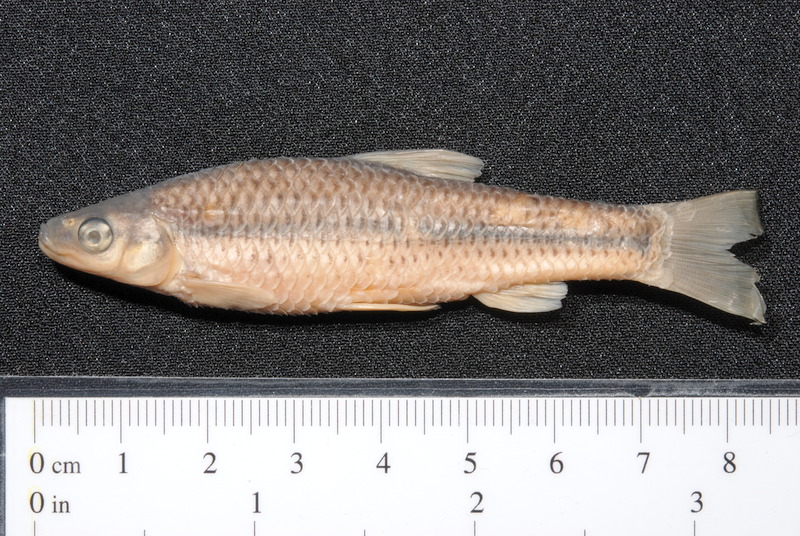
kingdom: Animalia
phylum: Chordata
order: Cypriniformes
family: Cyprinidae
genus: Pseudorasbora
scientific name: Pseudorasbora parva
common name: Topmouth gudgeon
